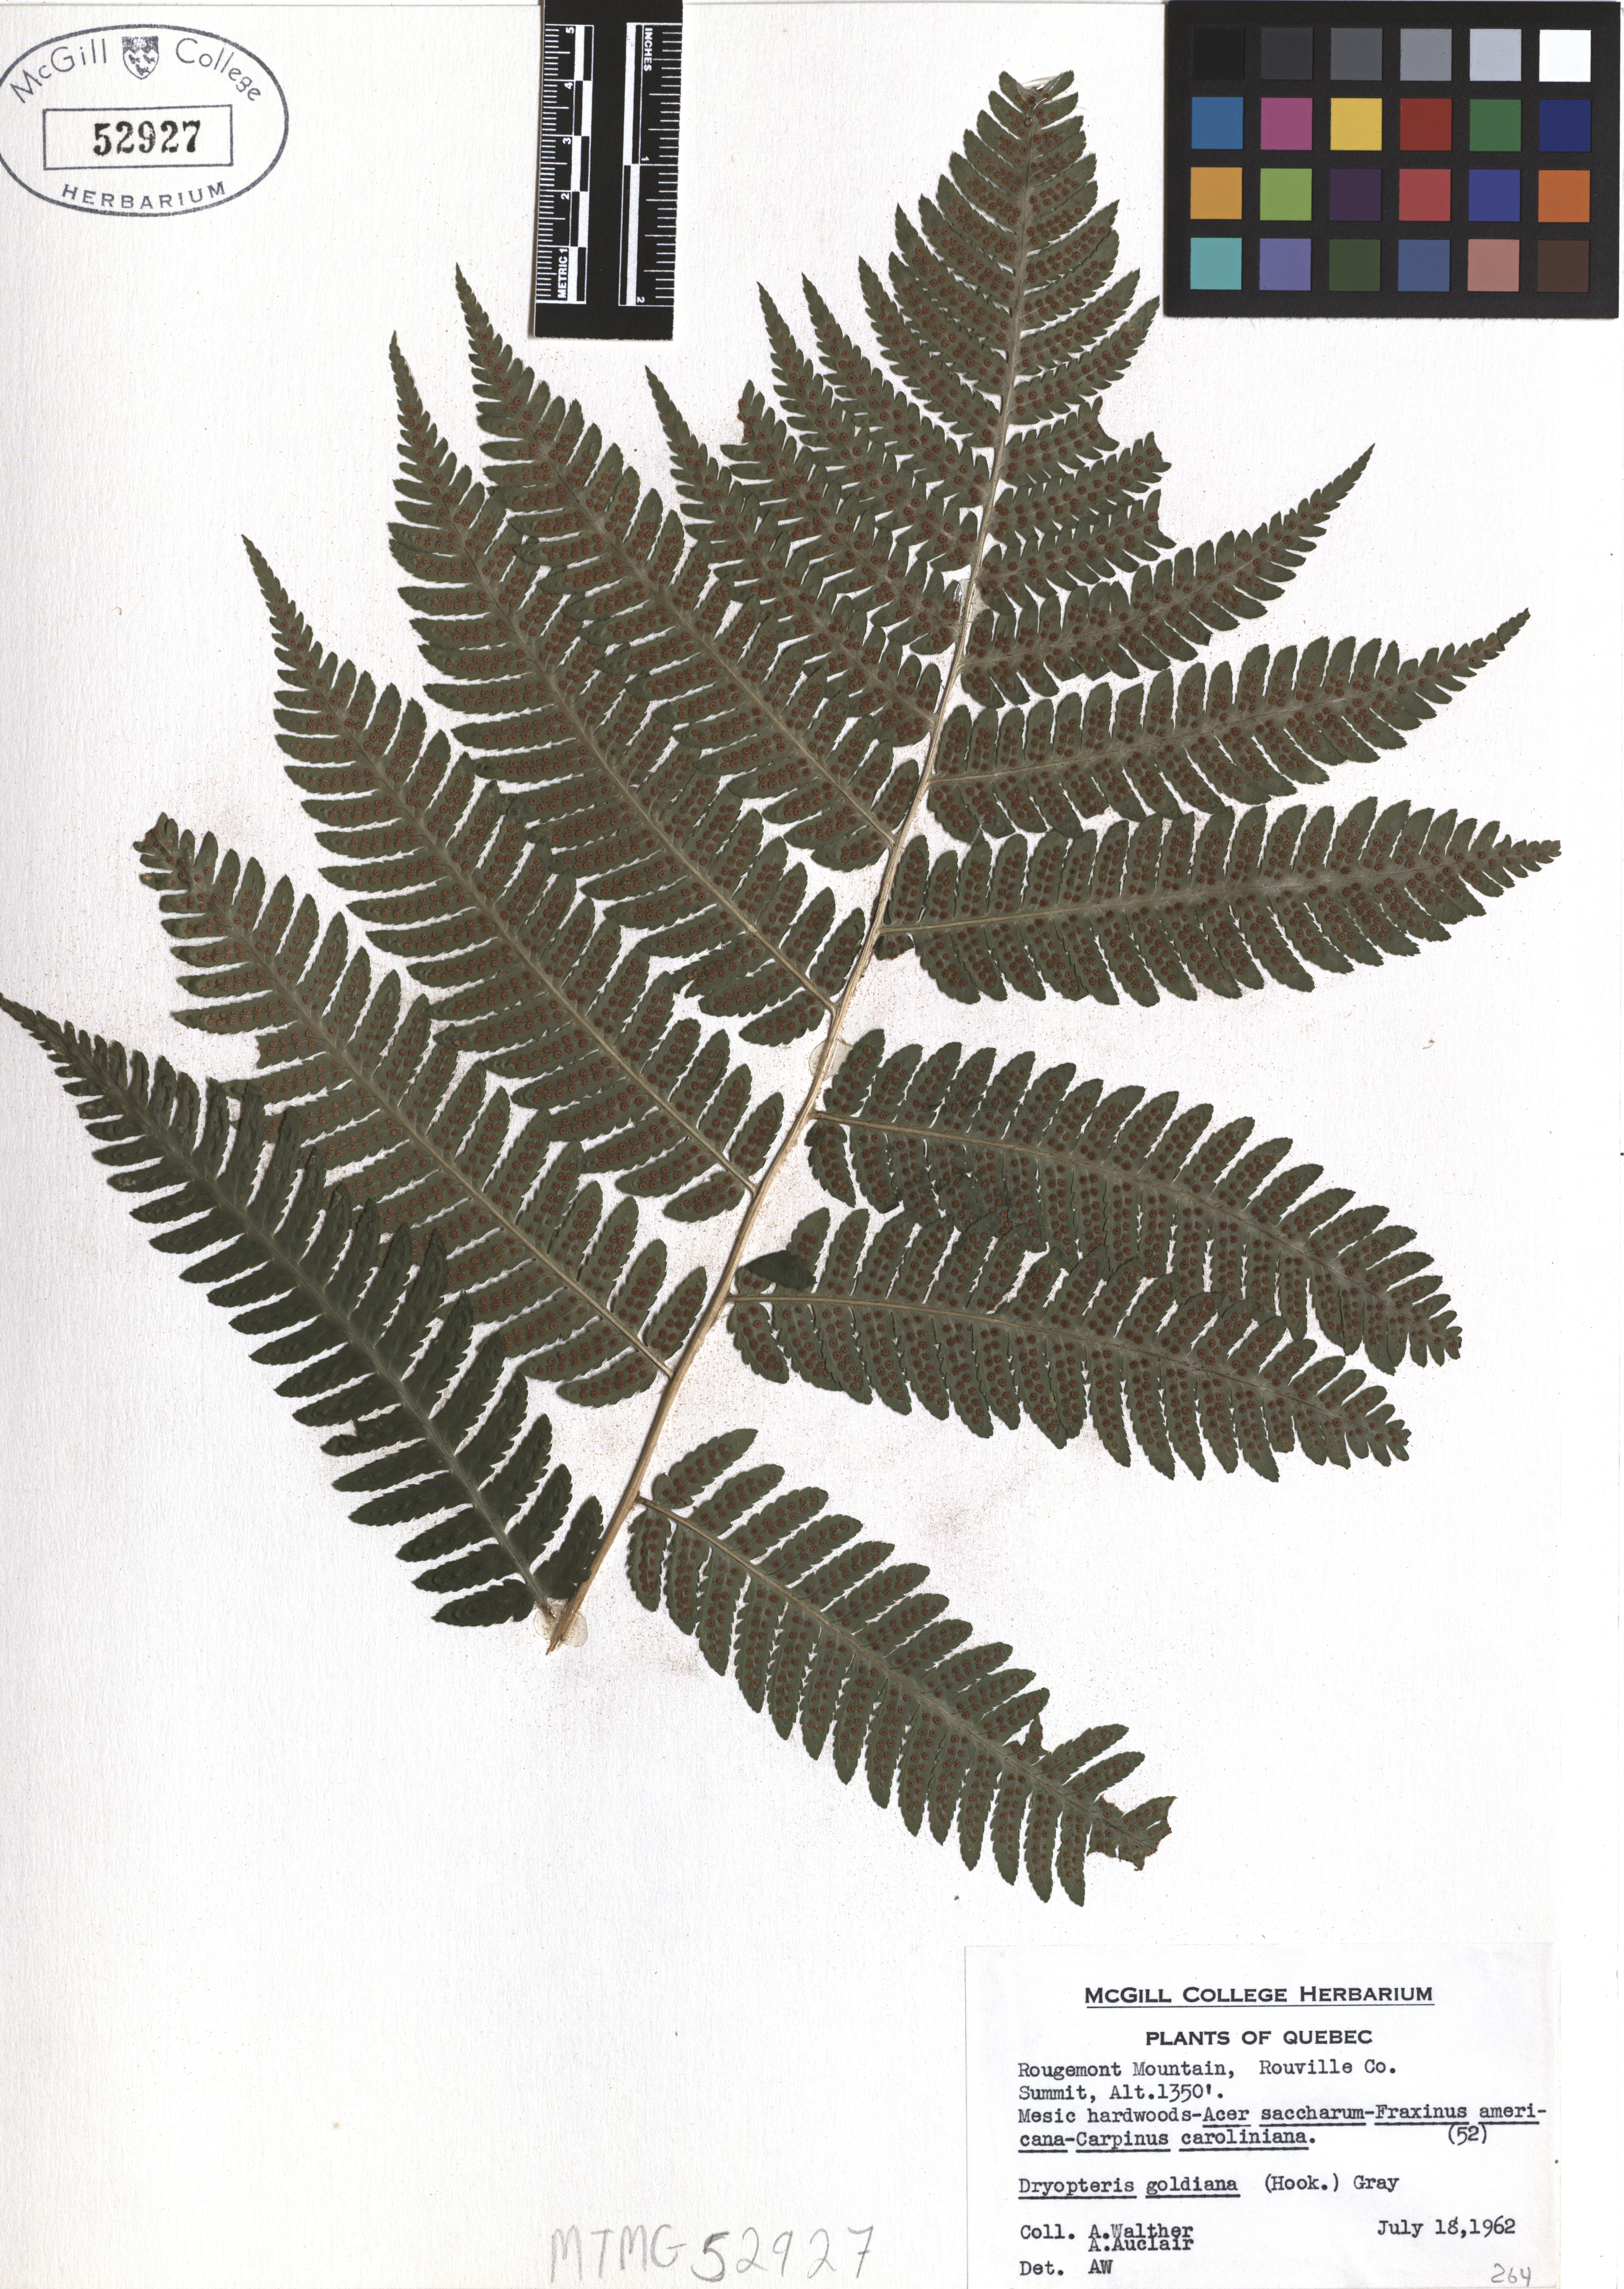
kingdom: Plantae
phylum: Tracheophyta
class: Polypodiopsida
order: Polypodiales
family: Dryopteridaceae
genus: Dryopteris
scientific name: Dryopteris goeldiana
